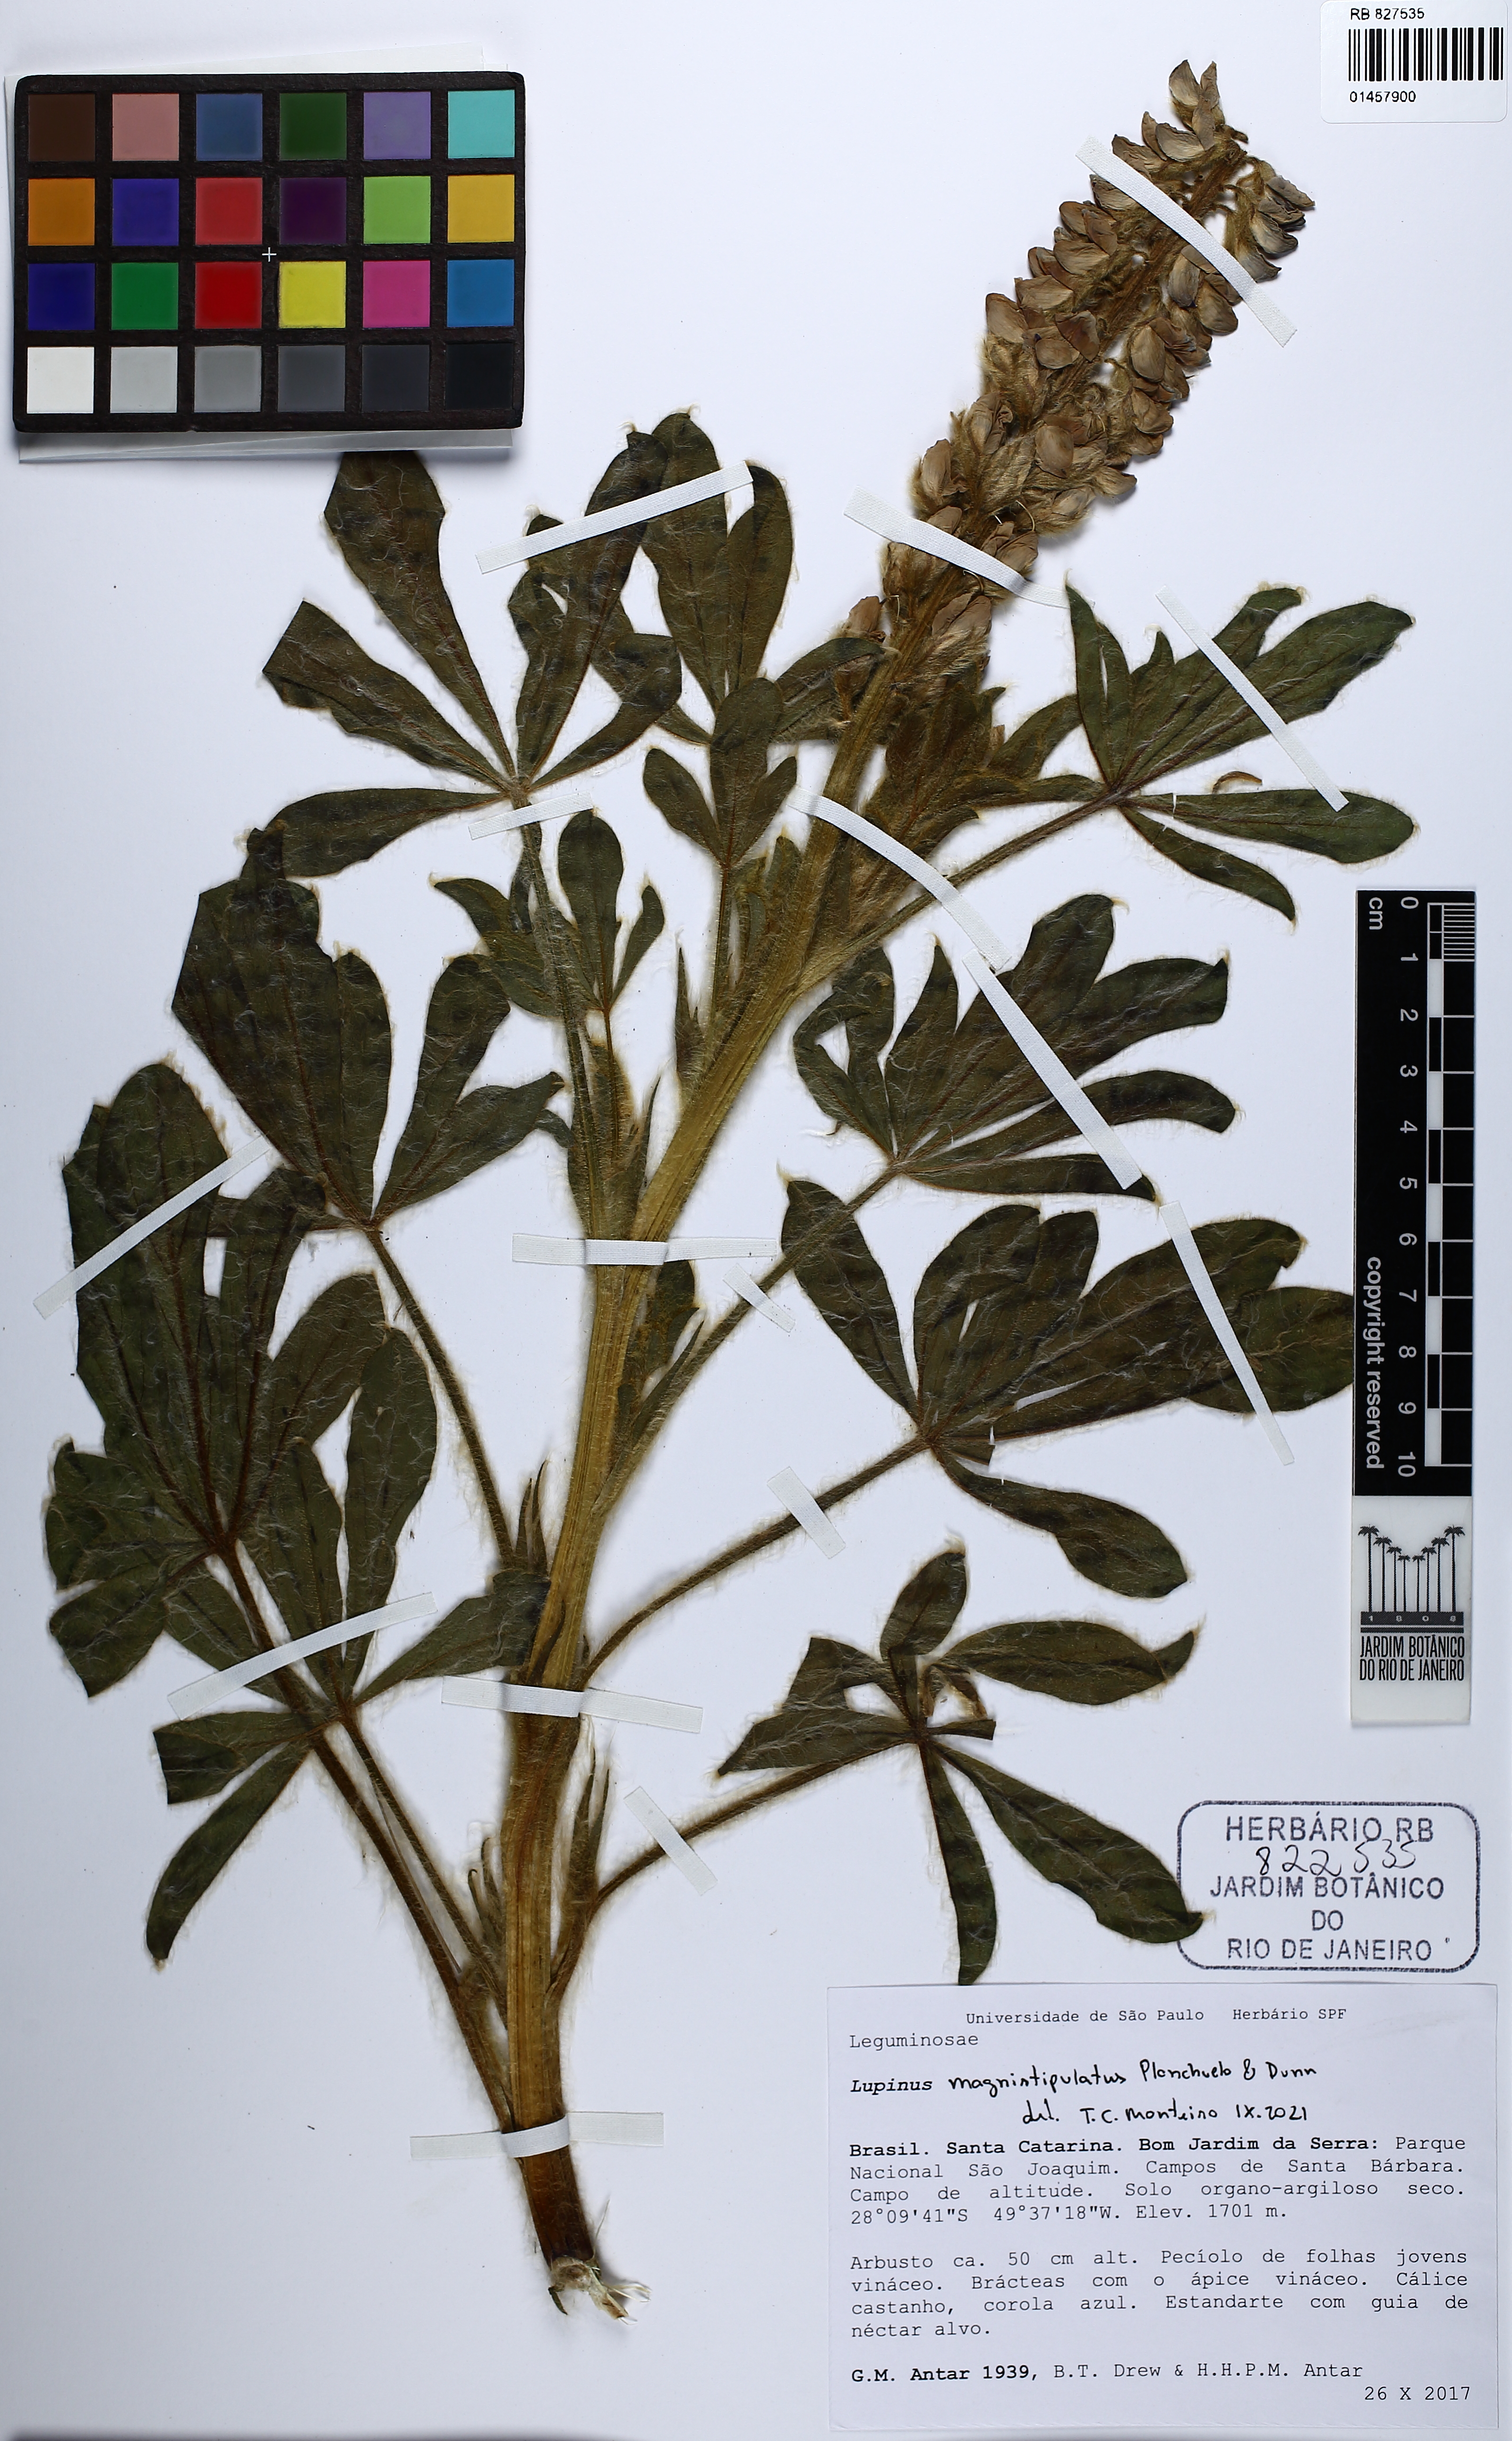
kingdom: Plantae
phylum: Tracheophyta
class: Magnoliopsida
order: Fabales
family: Fabaceae
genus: Lupinus
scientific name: Lupinus magnistipulatus
